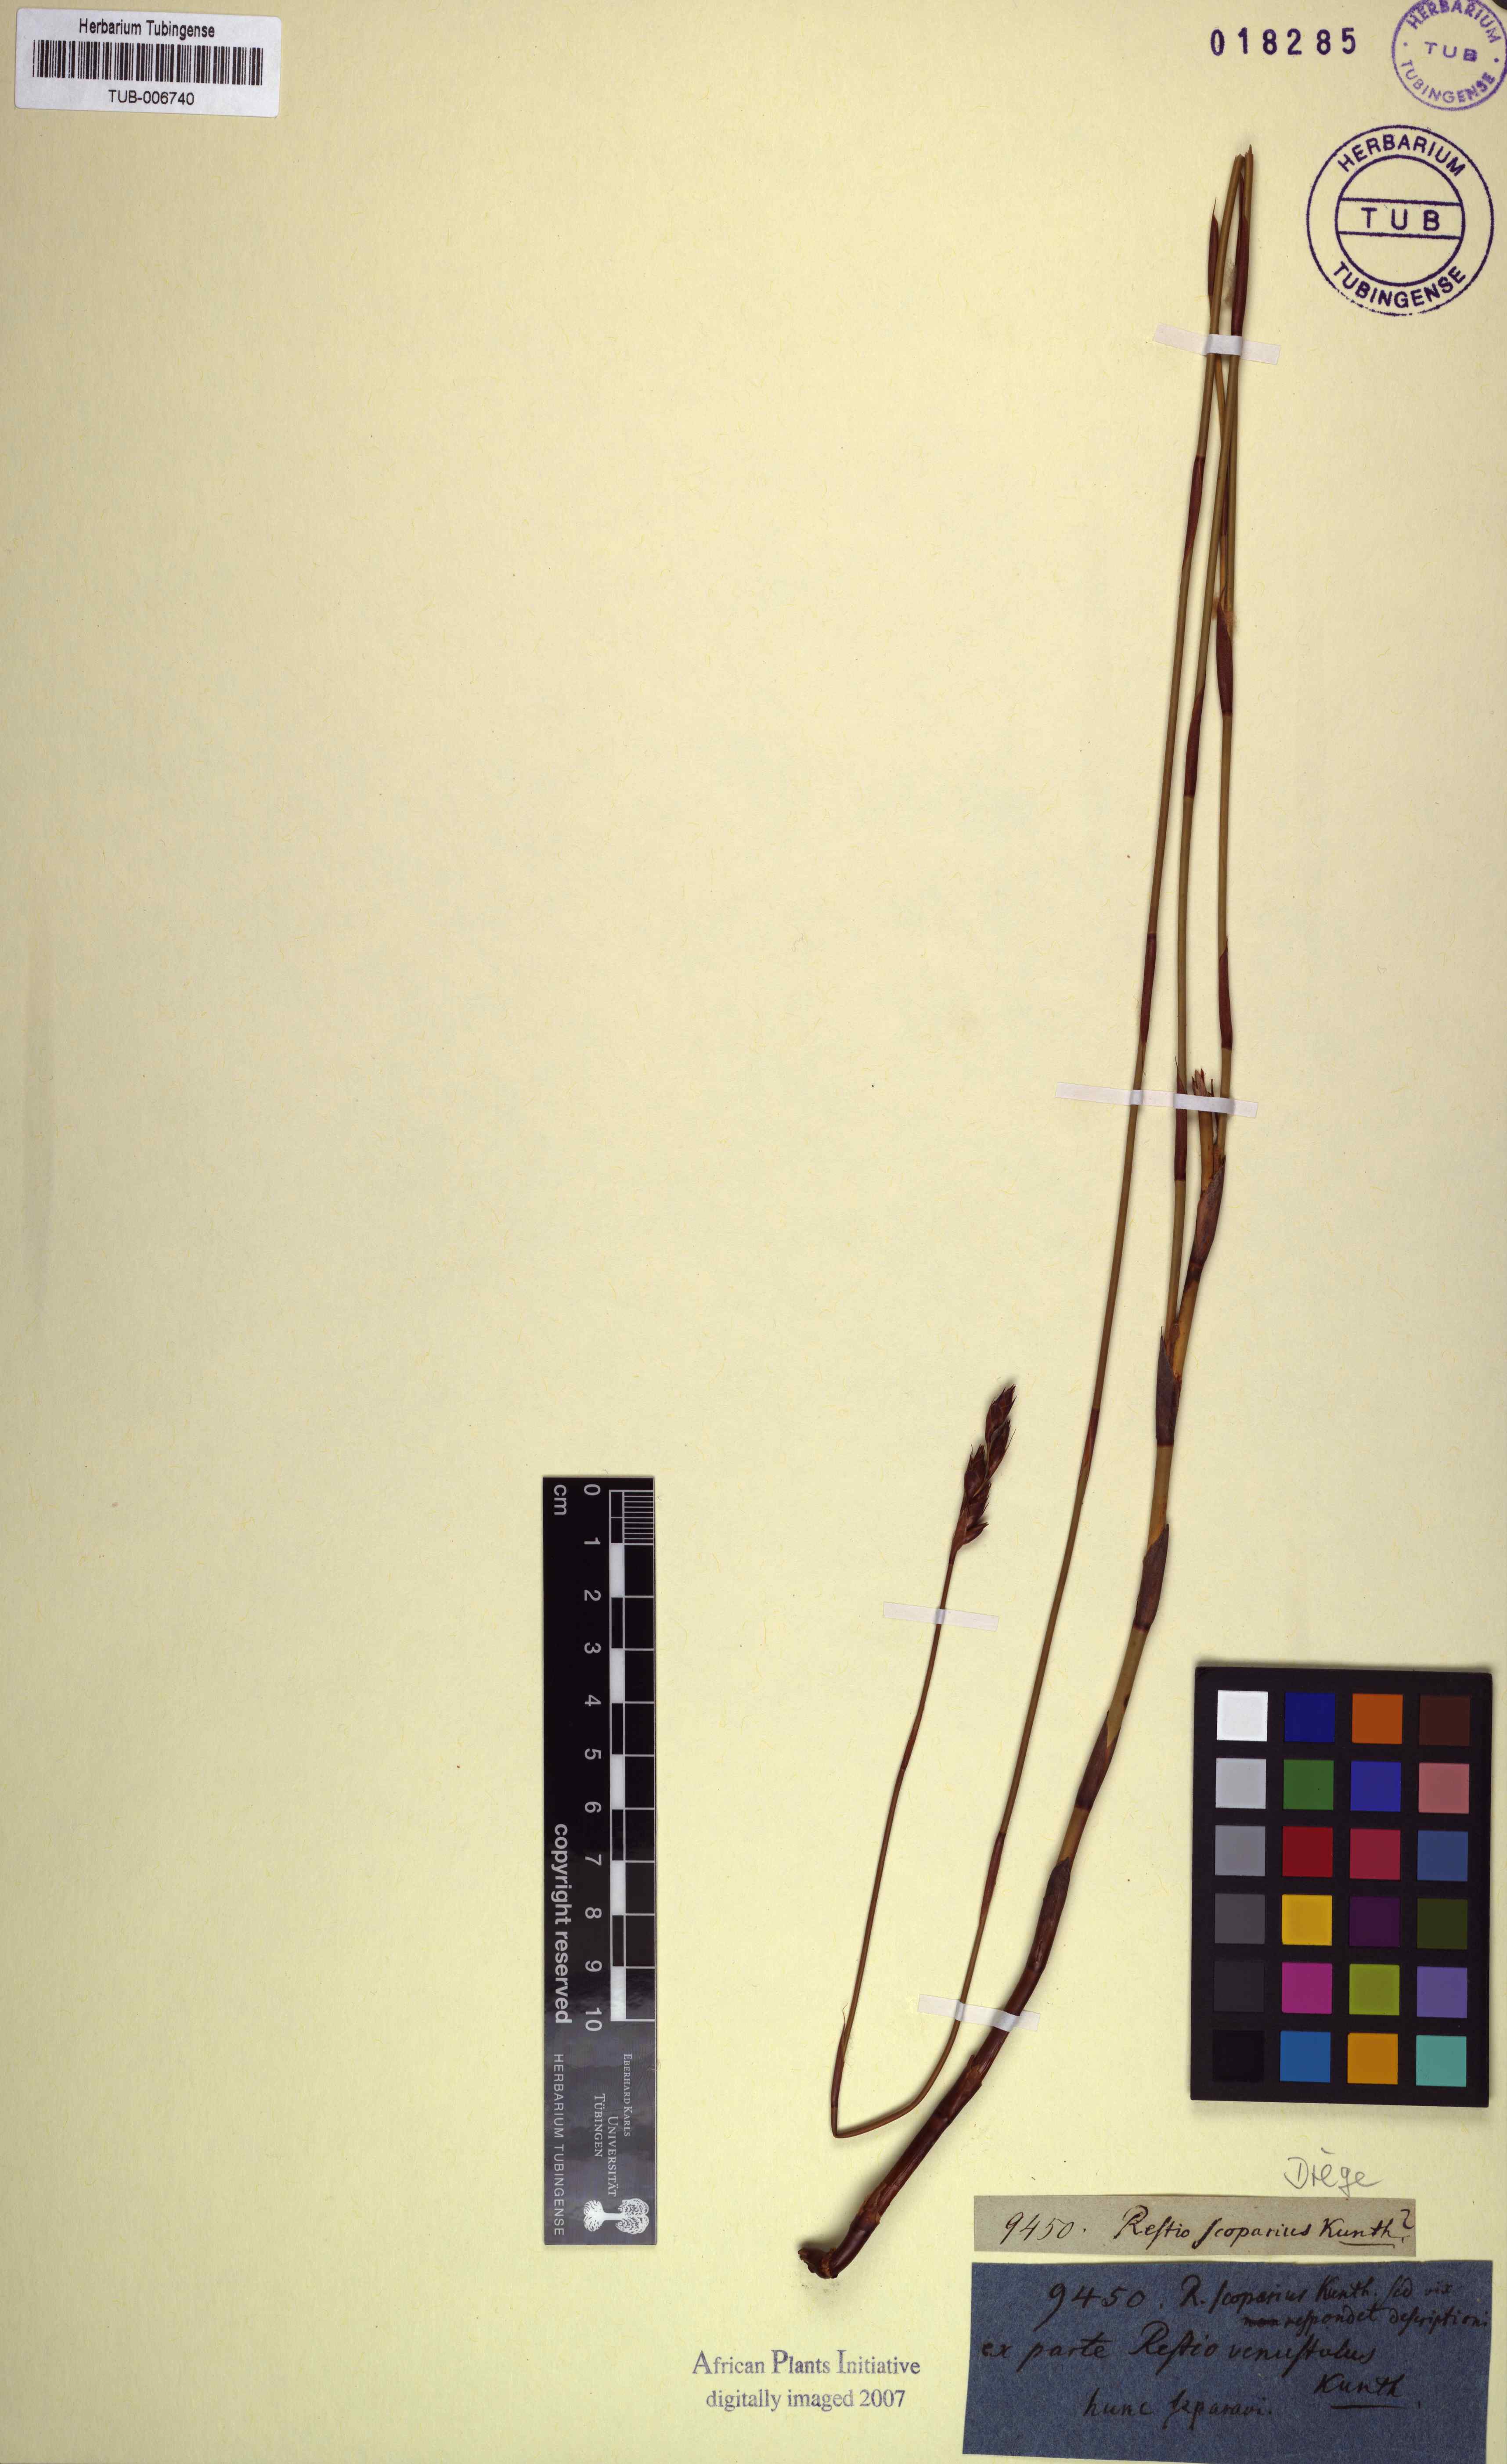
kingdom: Plantae
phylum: Tracheophyta
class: Liliopsida
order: Poales
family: Restionaceae
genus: Restio
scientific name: Restio sieberi
